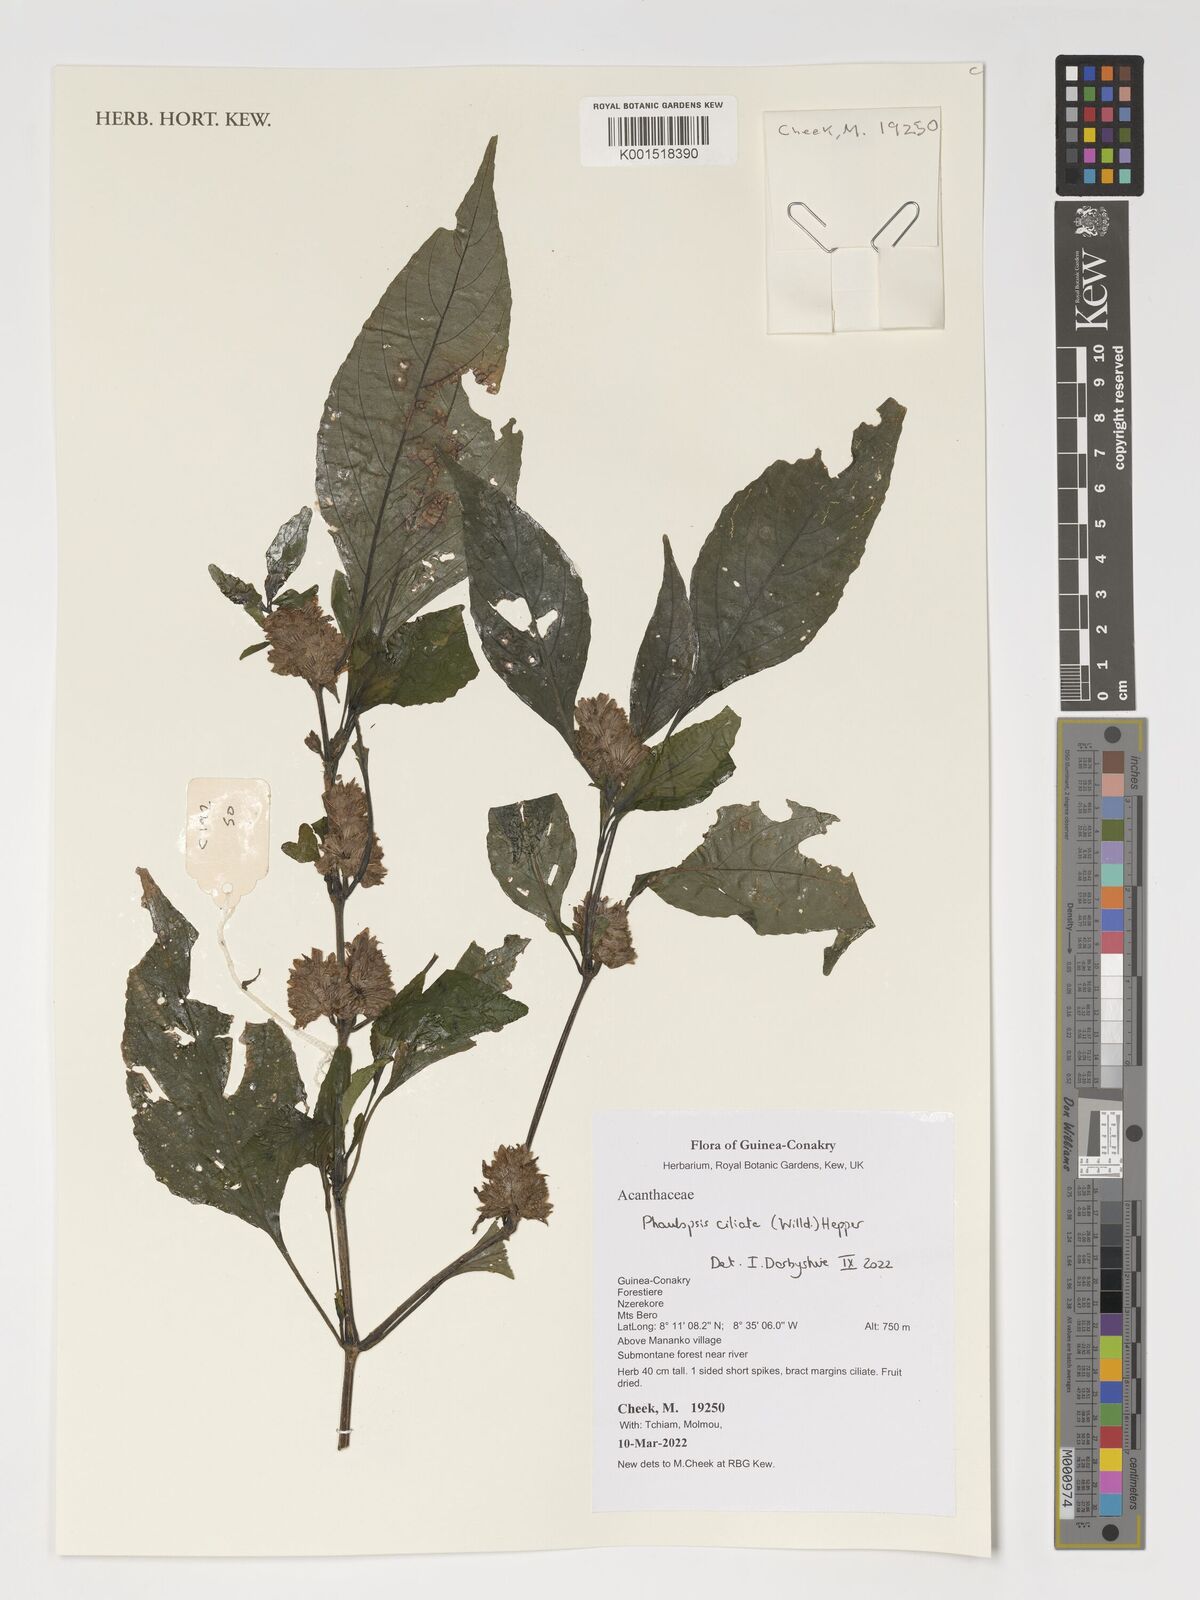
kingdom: Plantae
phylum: Tracheophyta
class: Magnoliopsida
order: Lamiales
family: Acanthaceae
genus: Phaulopsis
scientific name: Phaulopsis ciliata
